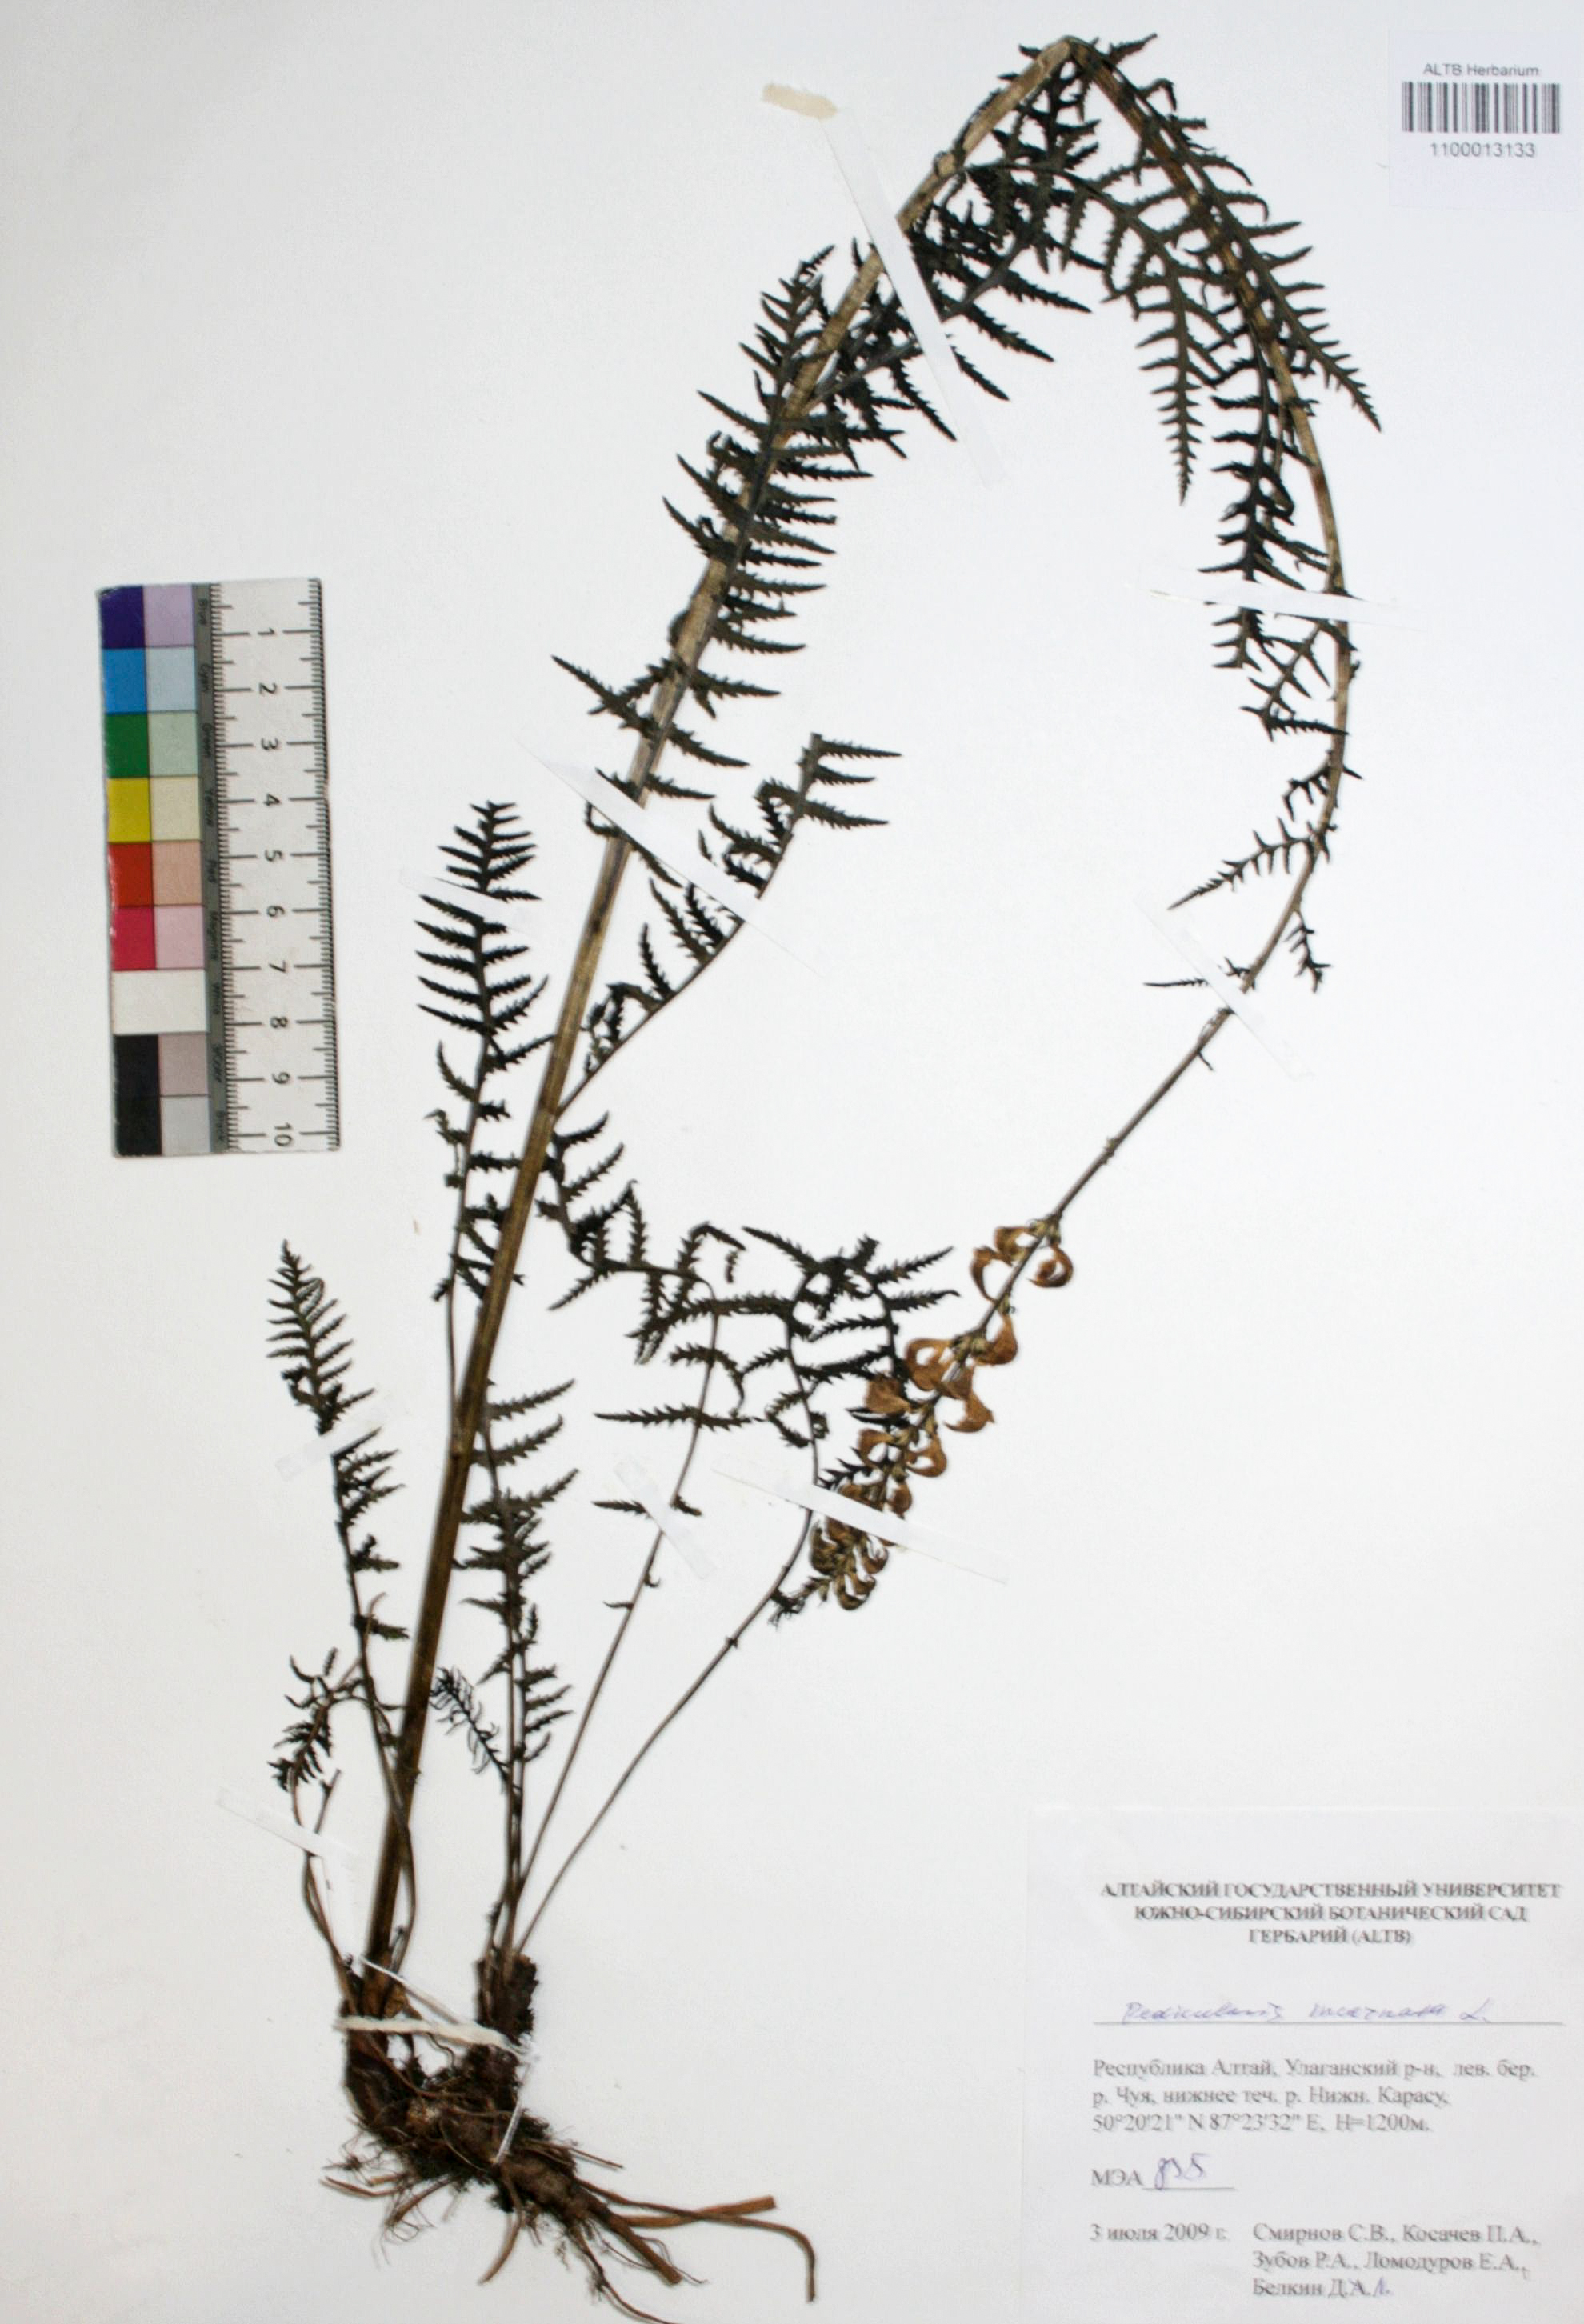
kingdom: Plantae
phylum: Tracheophyta
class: Magnoliopsida
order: Lamiales
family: Orobanchaceae
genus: Pedicularis
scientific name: Pedicularis incarnata
